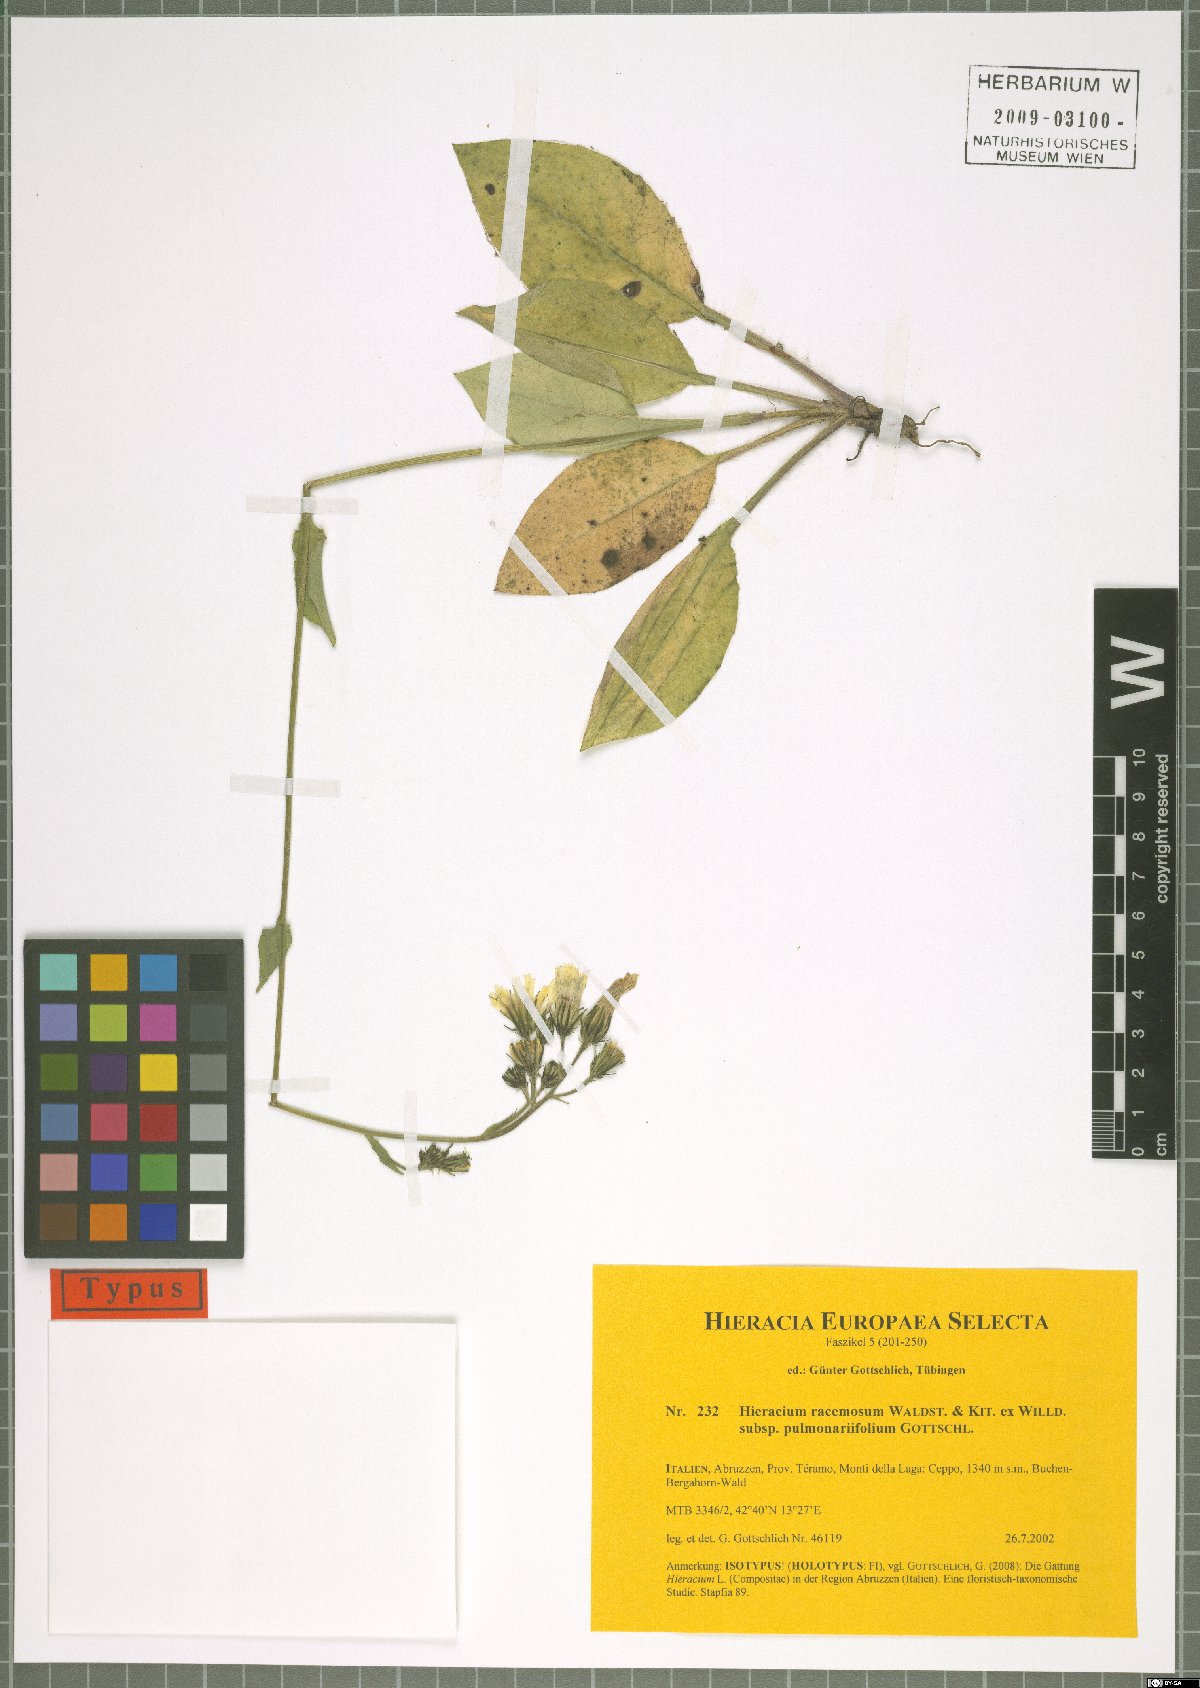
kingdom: Plantae
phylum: Tracheophyta
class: Magnoliopsida
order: Asterales
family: Asteraceae
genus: Hieracium
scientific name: Hieracium racemosum
